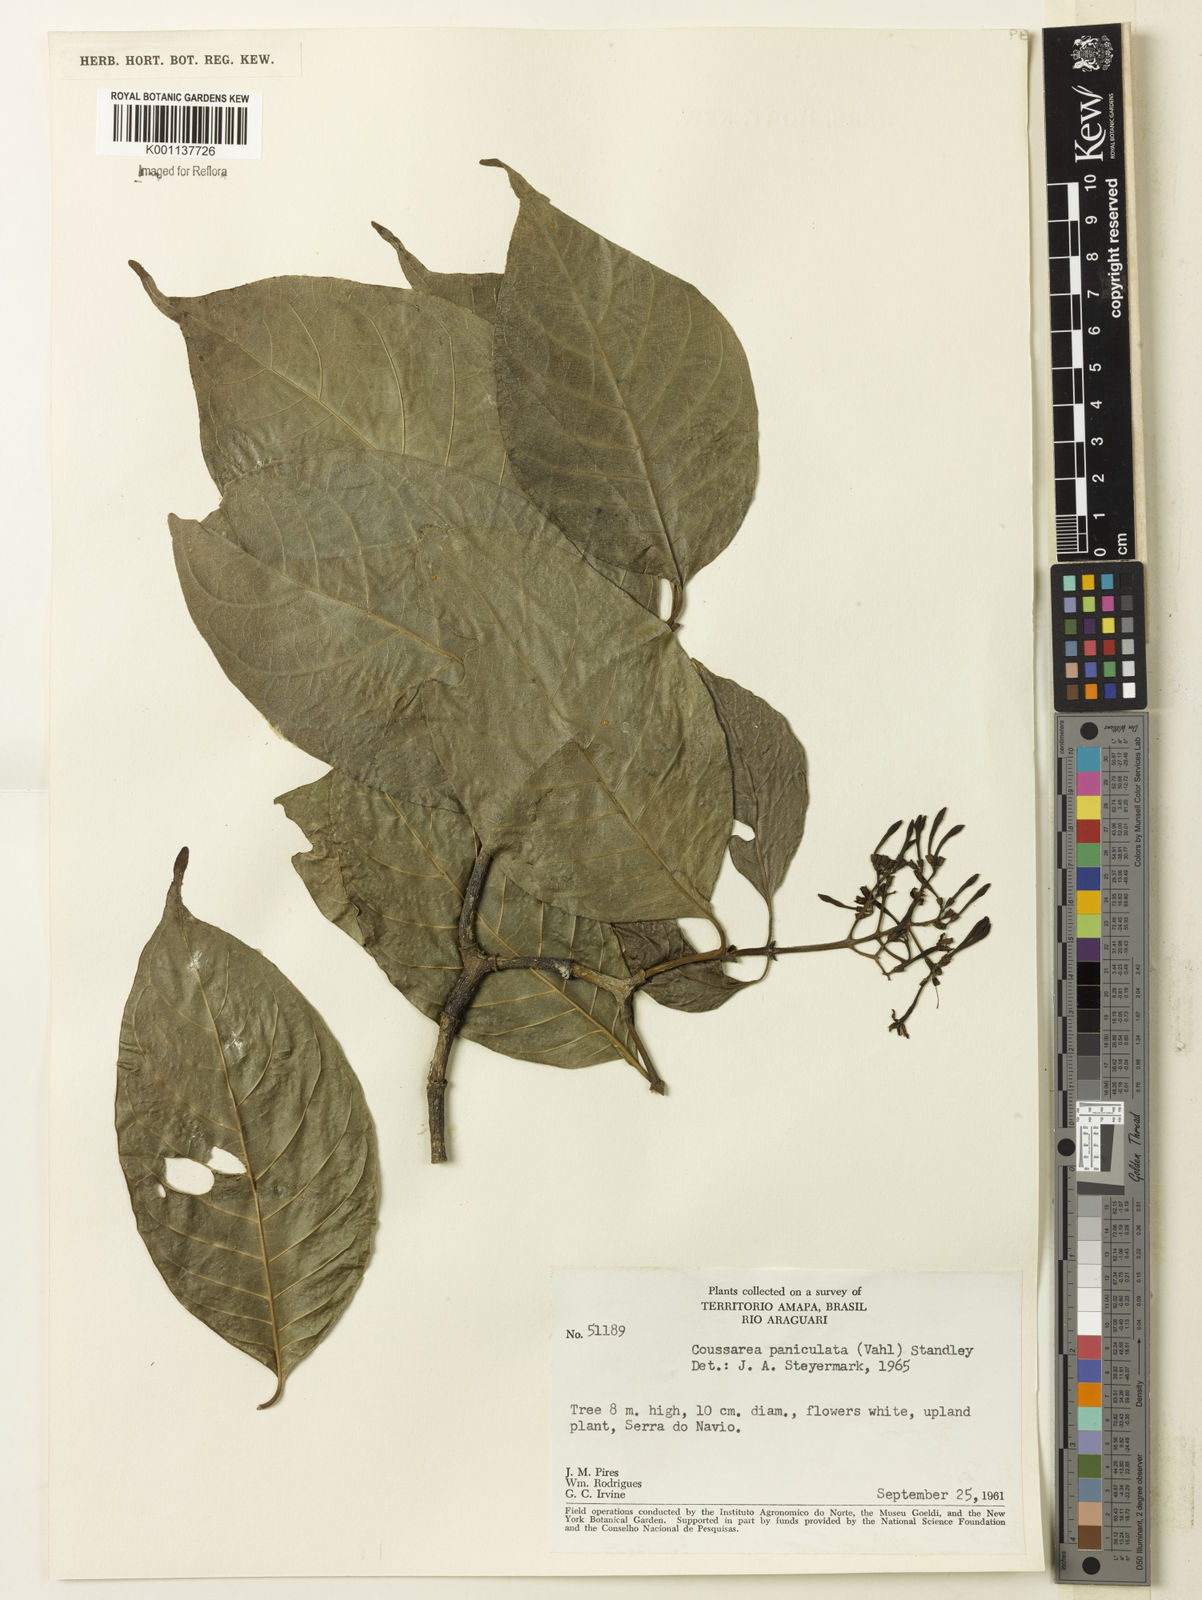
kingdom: Plantae
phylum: Tracheophyta
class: Magnoliopsida
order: Gentianales
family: Rubiaceae
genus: Coussarea
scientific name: Coussarea paniculata
